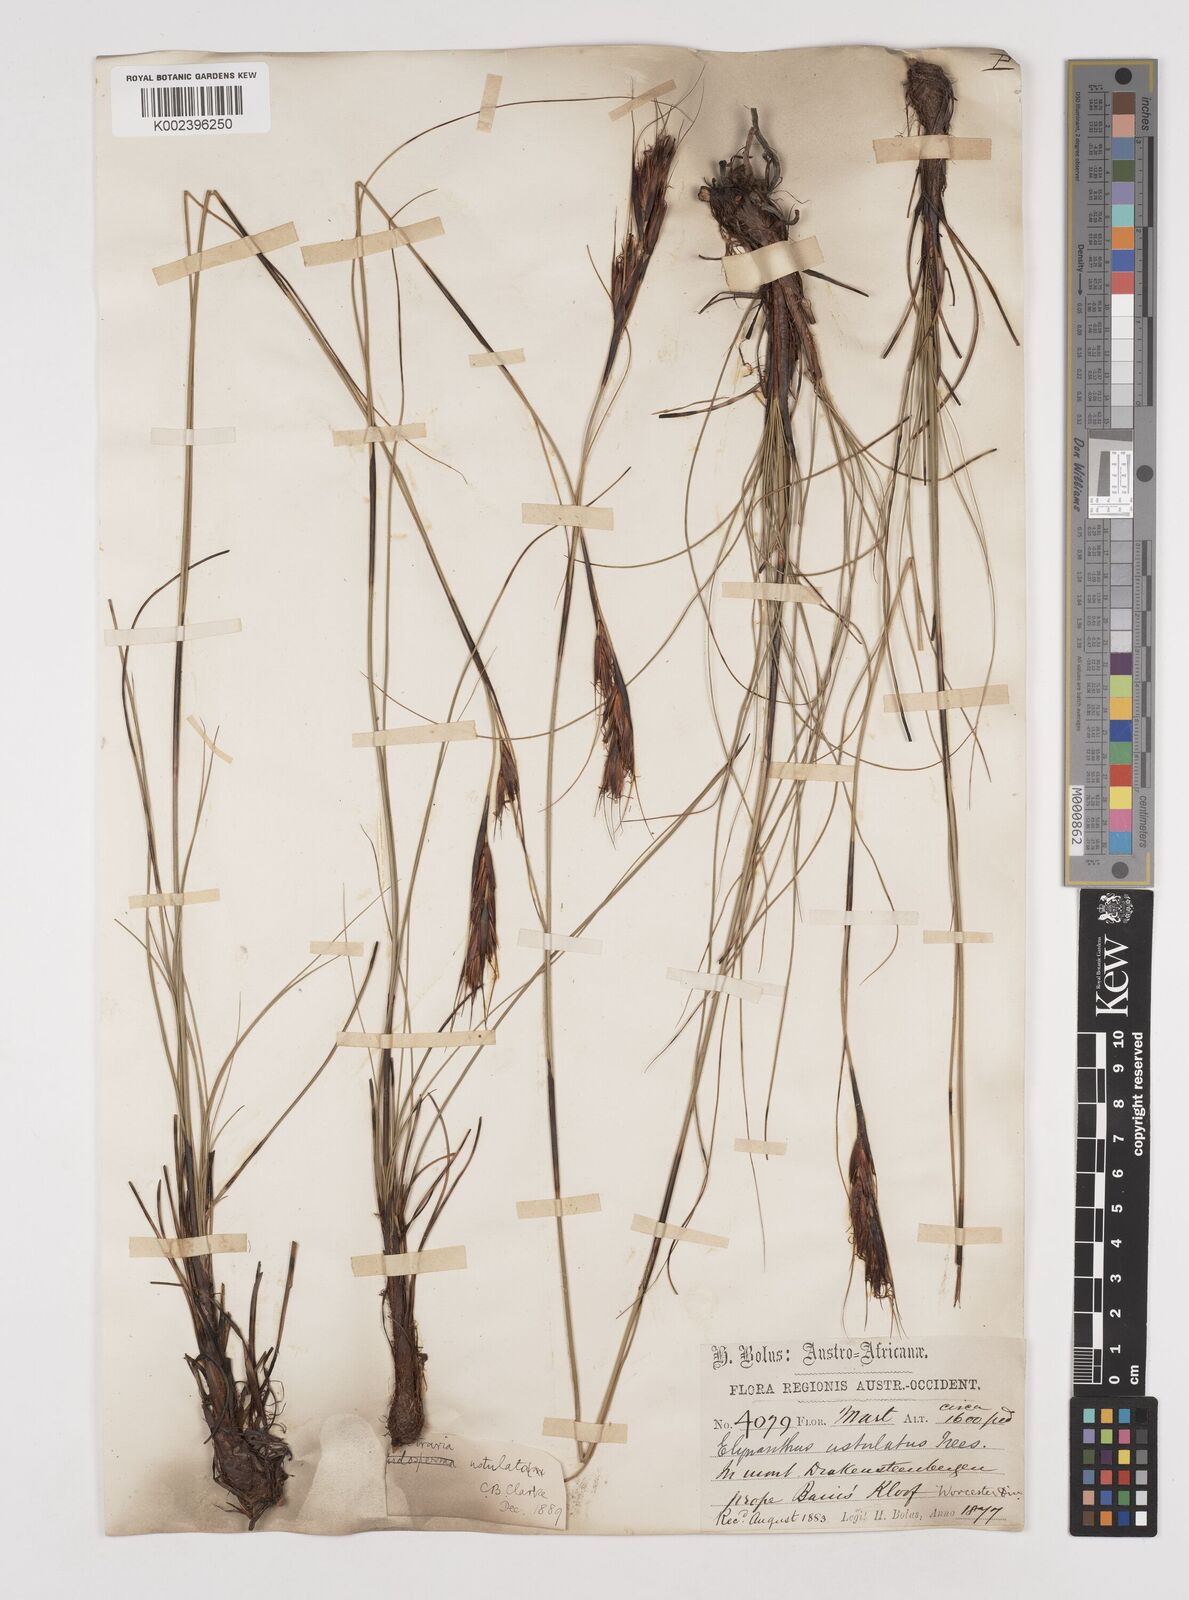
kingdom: Plantae
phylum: Tracheophyta
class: Liliopsida
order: Poales
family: Cyperaceae
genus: Tetraria
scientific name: Tetraria ustulata
